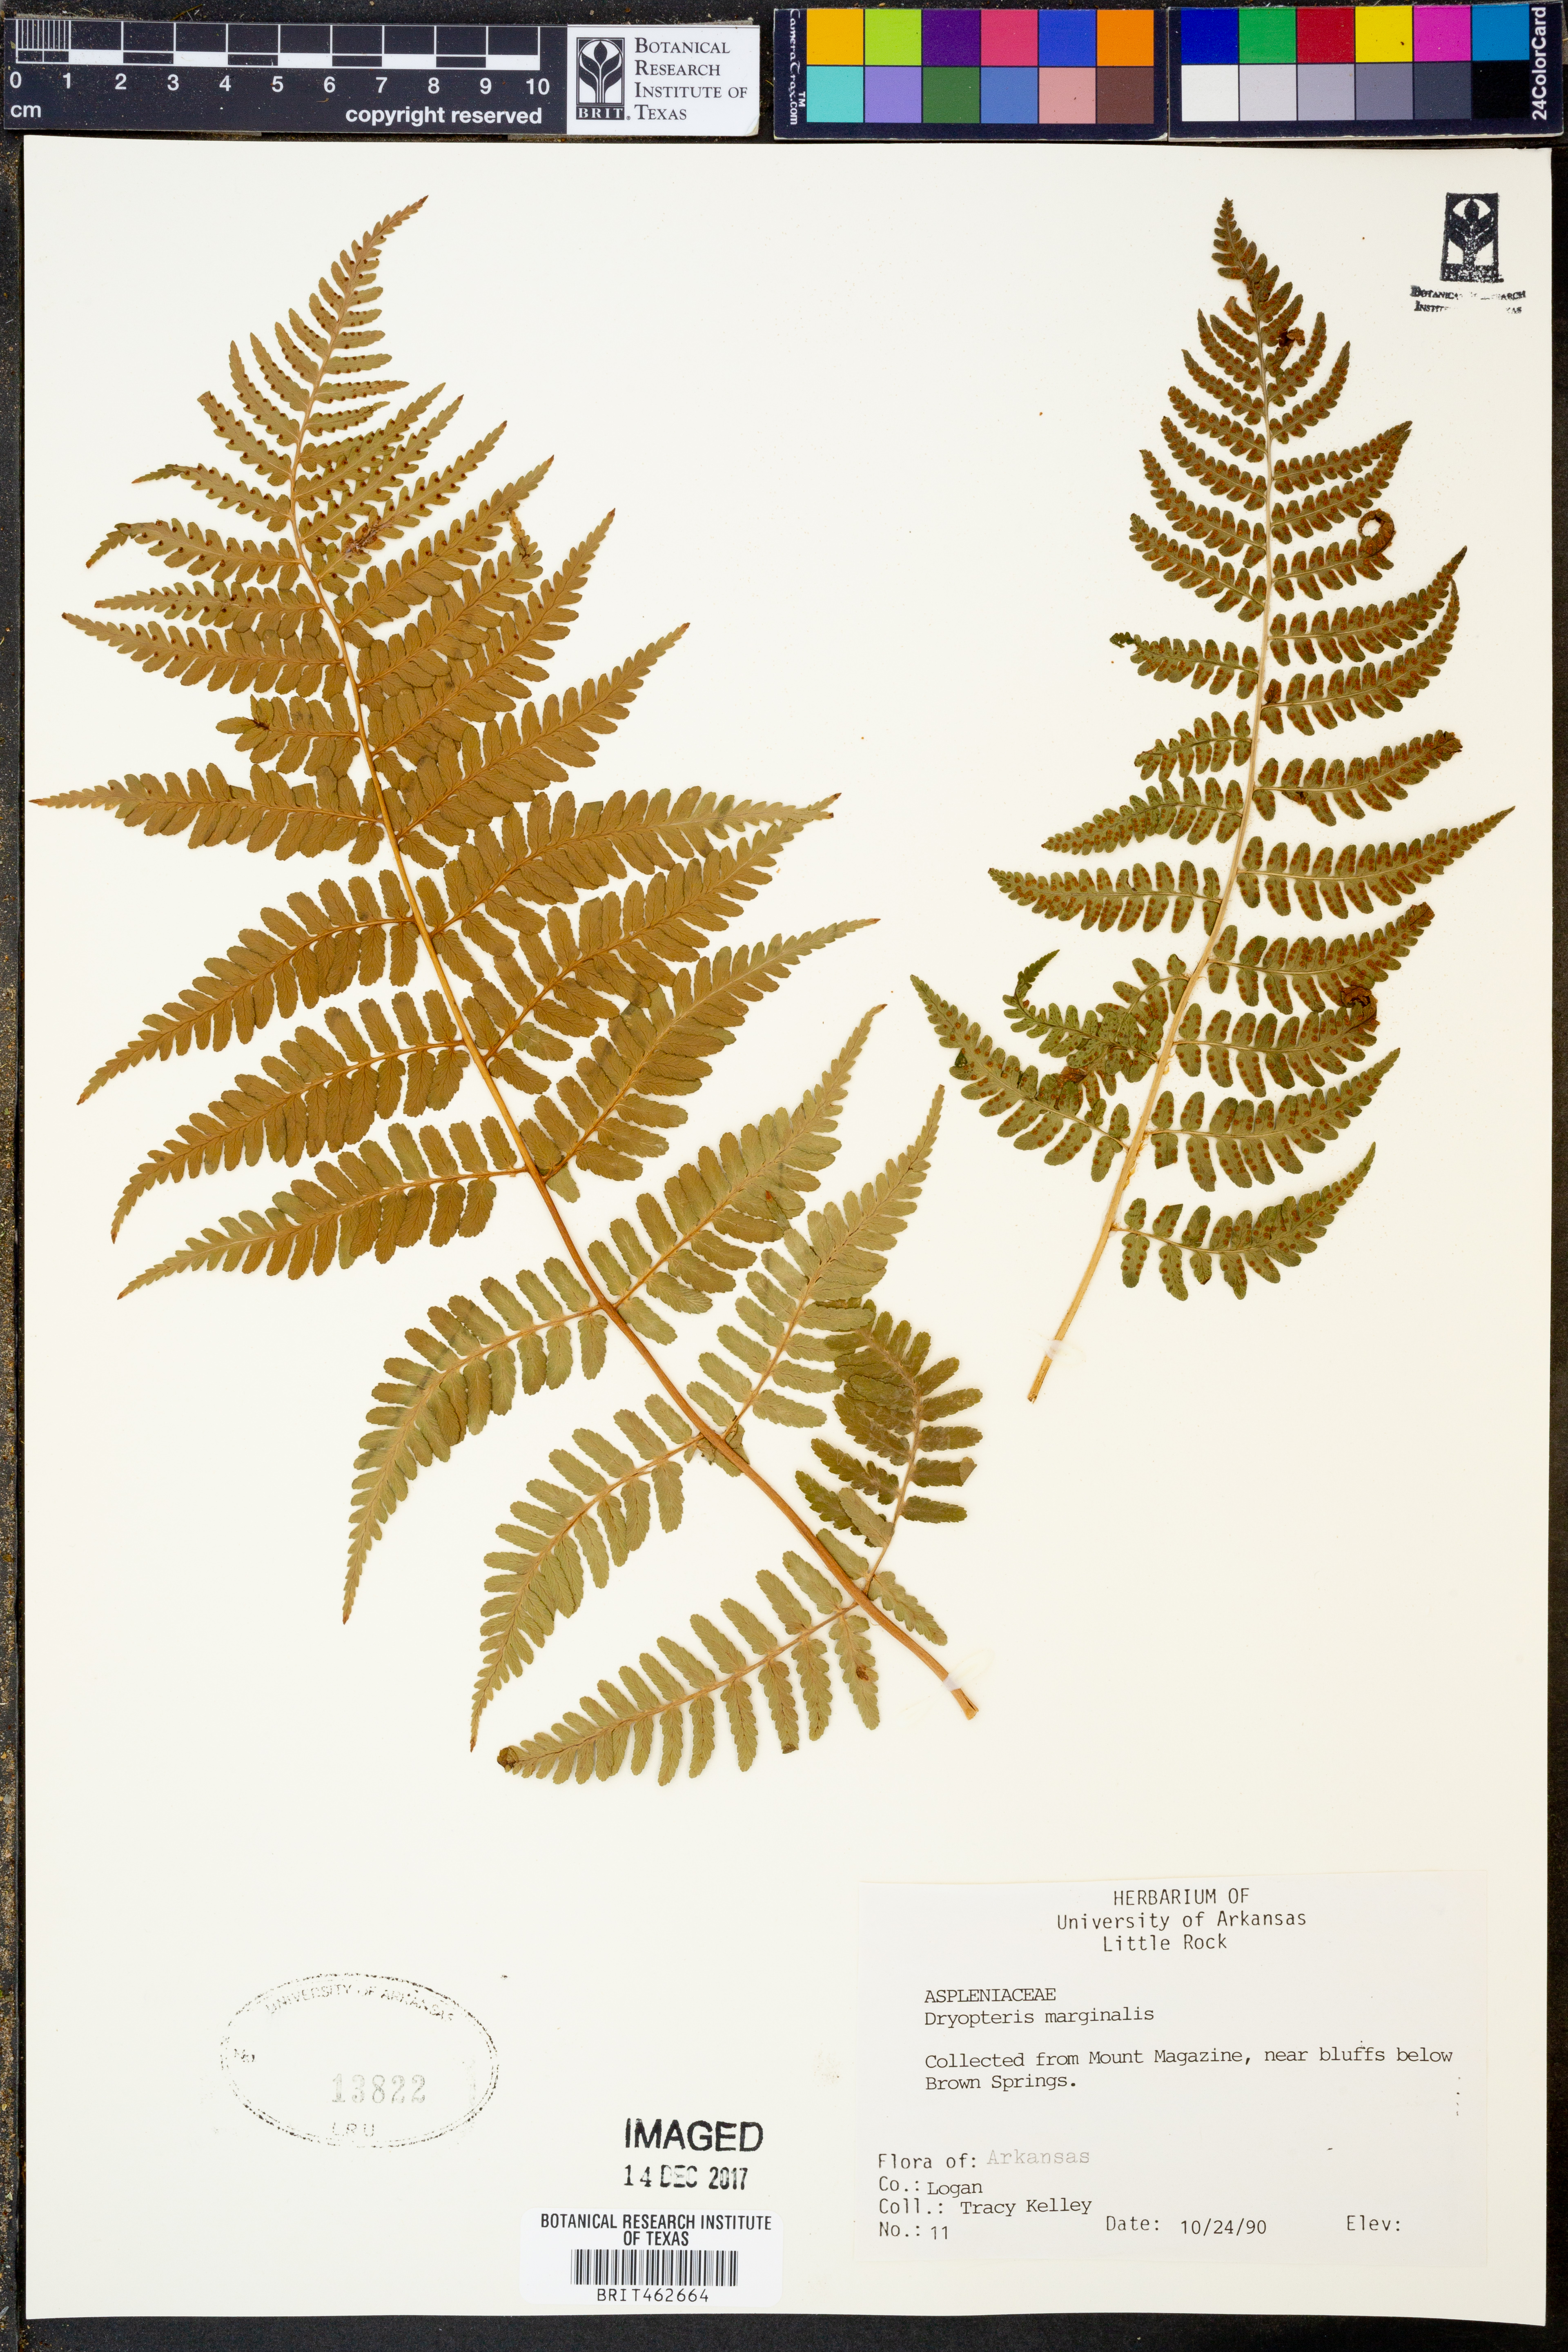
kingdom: Plantae
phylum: Tracheophyta
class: Polypodiopsida
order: Polypodiales
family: Dryopteridaceae
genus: Dryopteris
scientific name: Dryopteris marginalis
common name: Marginal wood fern
